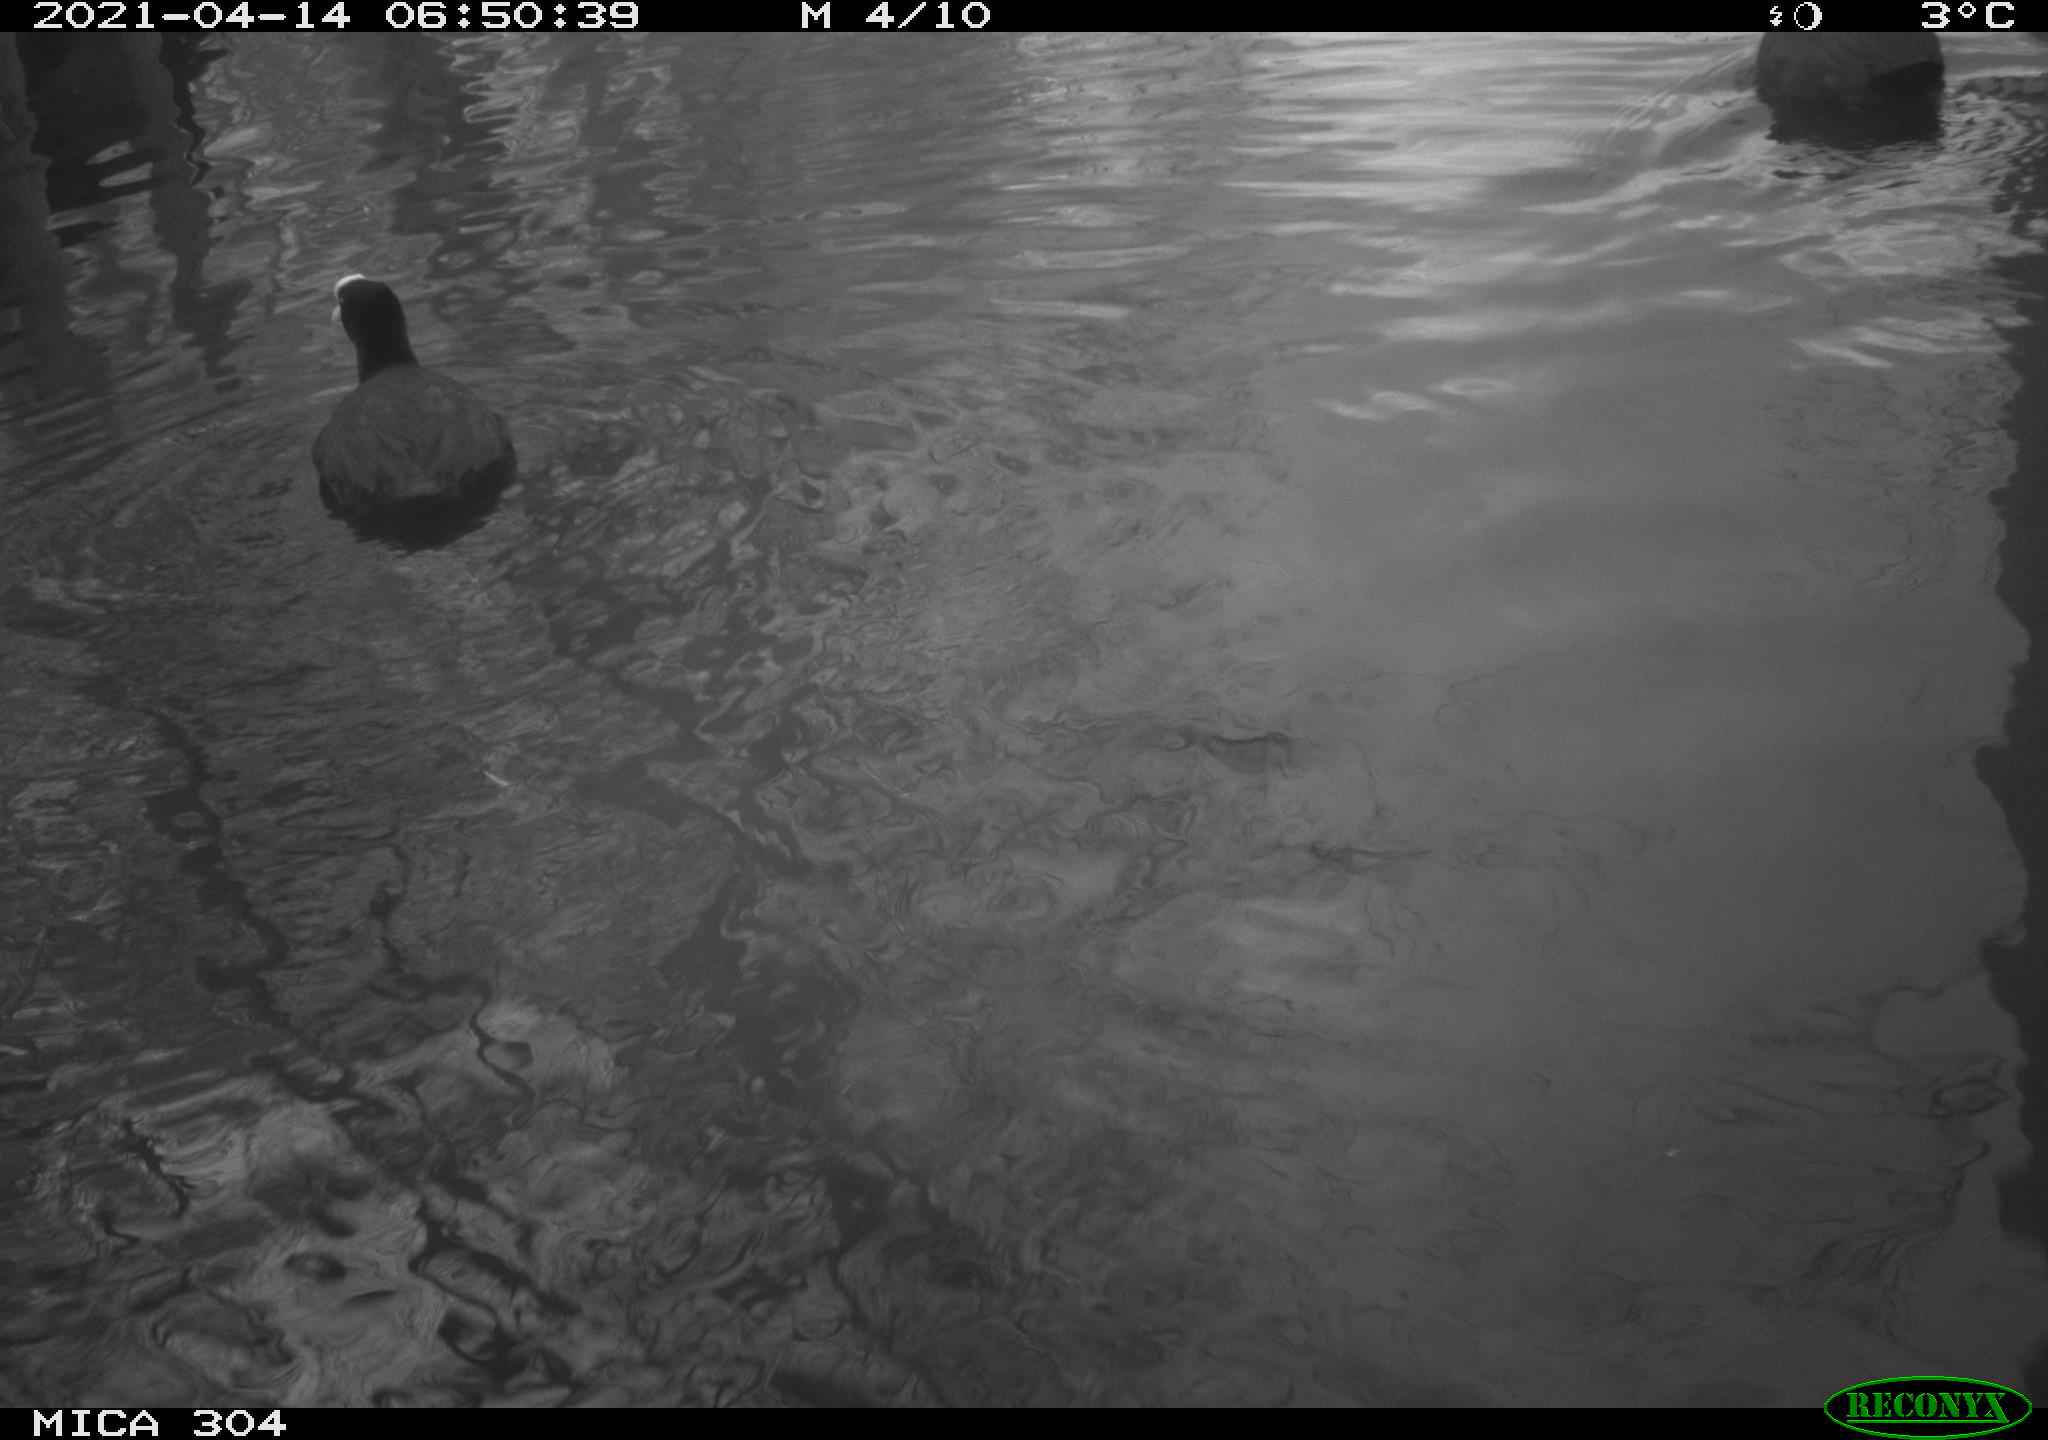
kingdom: Animalia
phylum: Chordata
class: Aves
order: Anseriformes
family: Anatidae
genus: Anas
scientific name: Anas
